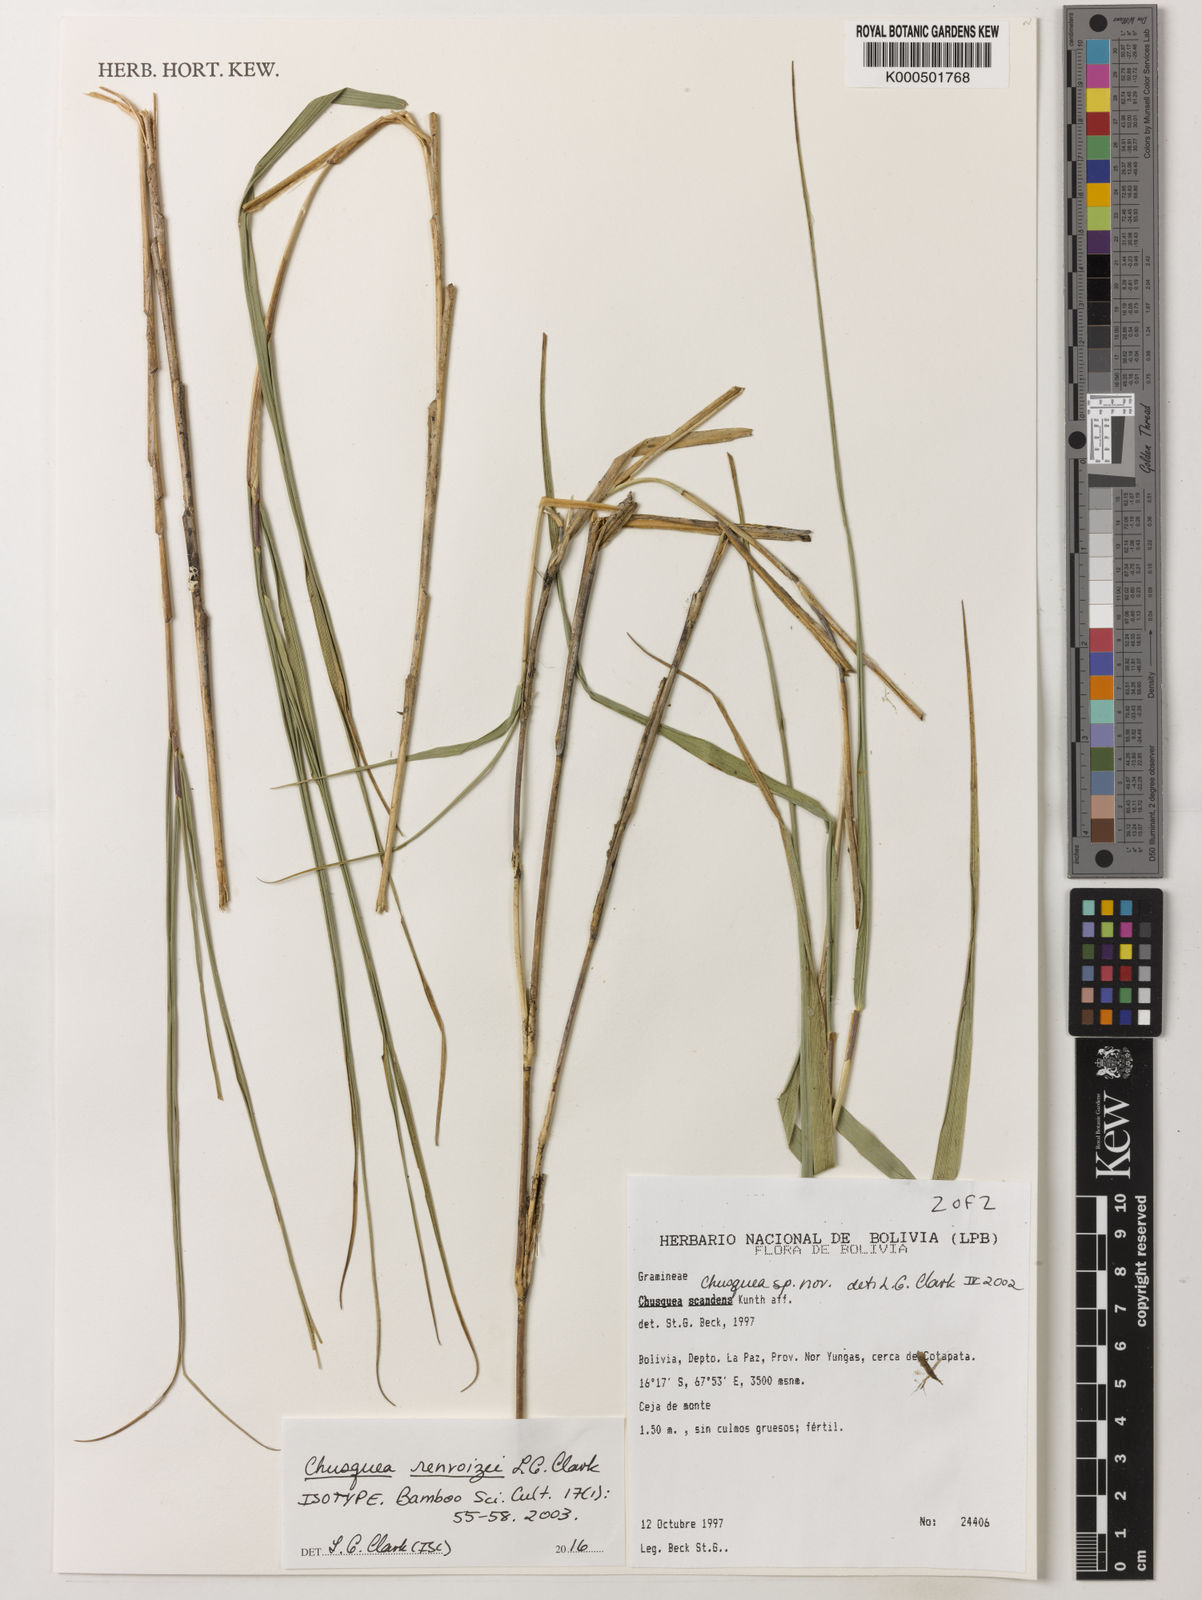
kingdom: Plantae
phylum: Tracheophyta
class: Liliopsida
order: Poales
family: Poaceae
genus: Chusquea
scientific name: Chusquea renvoizei
